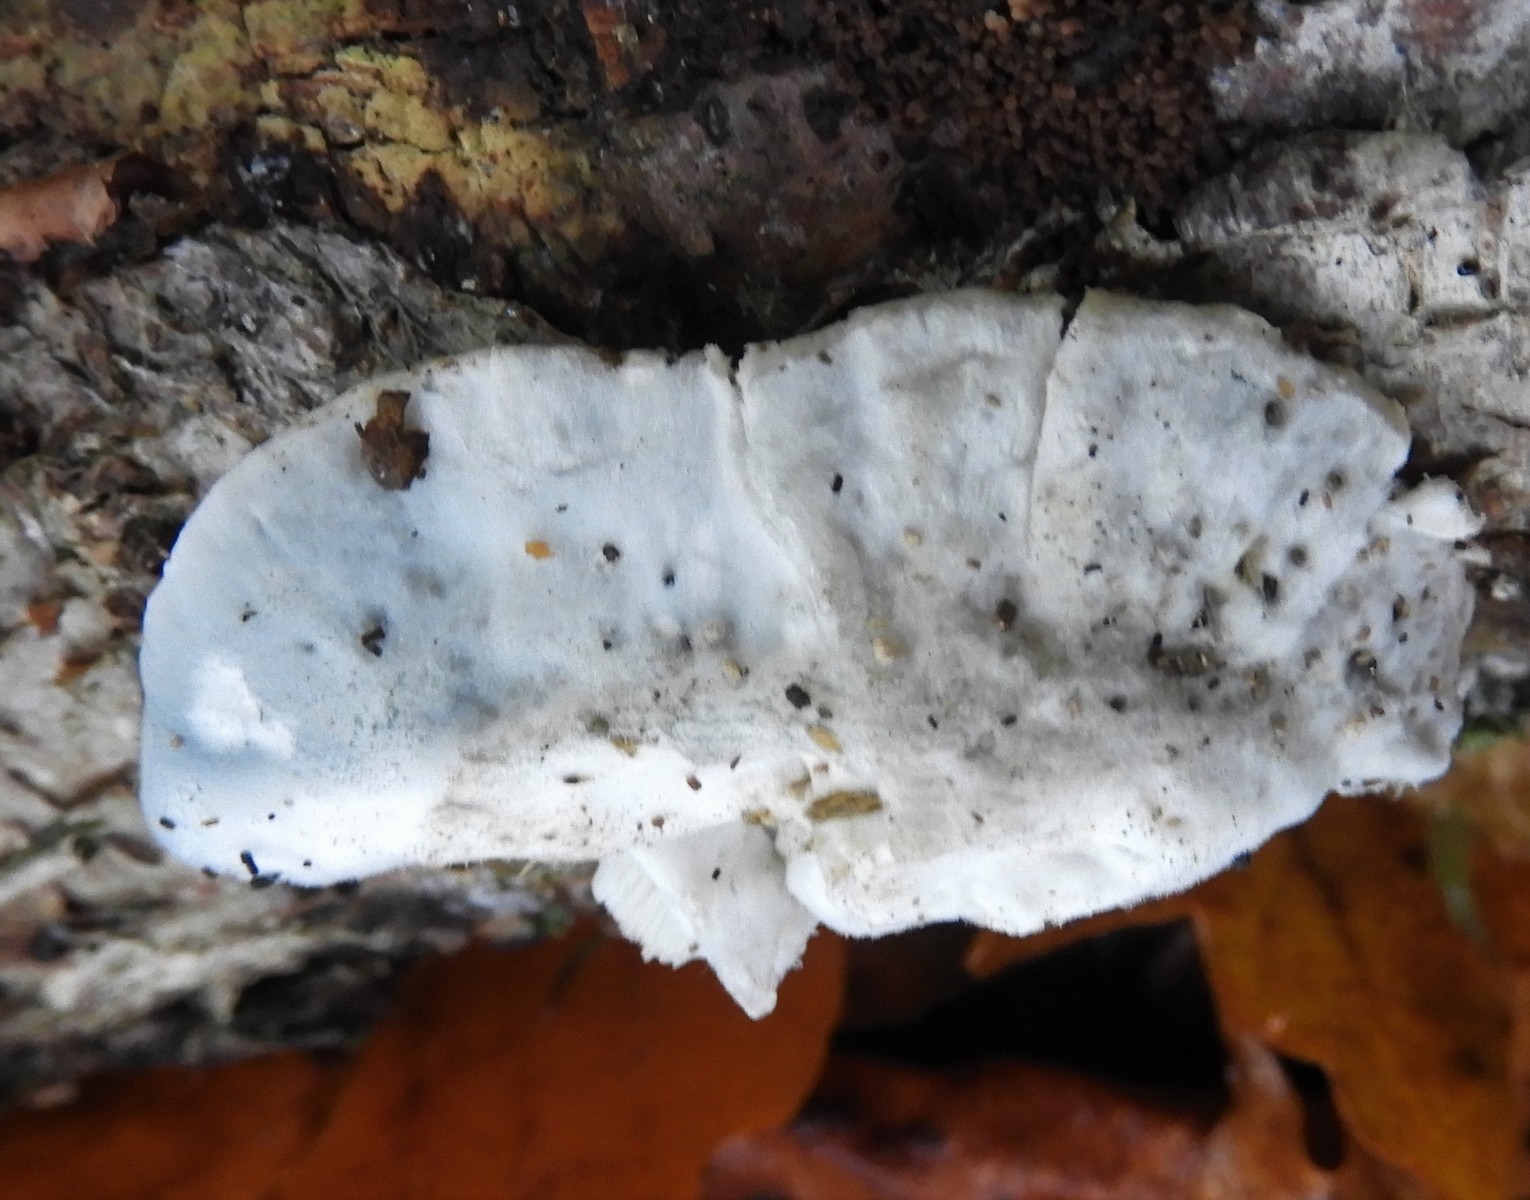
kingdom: Fungi
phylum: Basidiomycota
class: Agaricomycetes
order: Polyporales
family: Polyporaceae
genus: Cyanosporus
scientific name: Cyanosporus caesius
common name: blålig kødporesvamp
